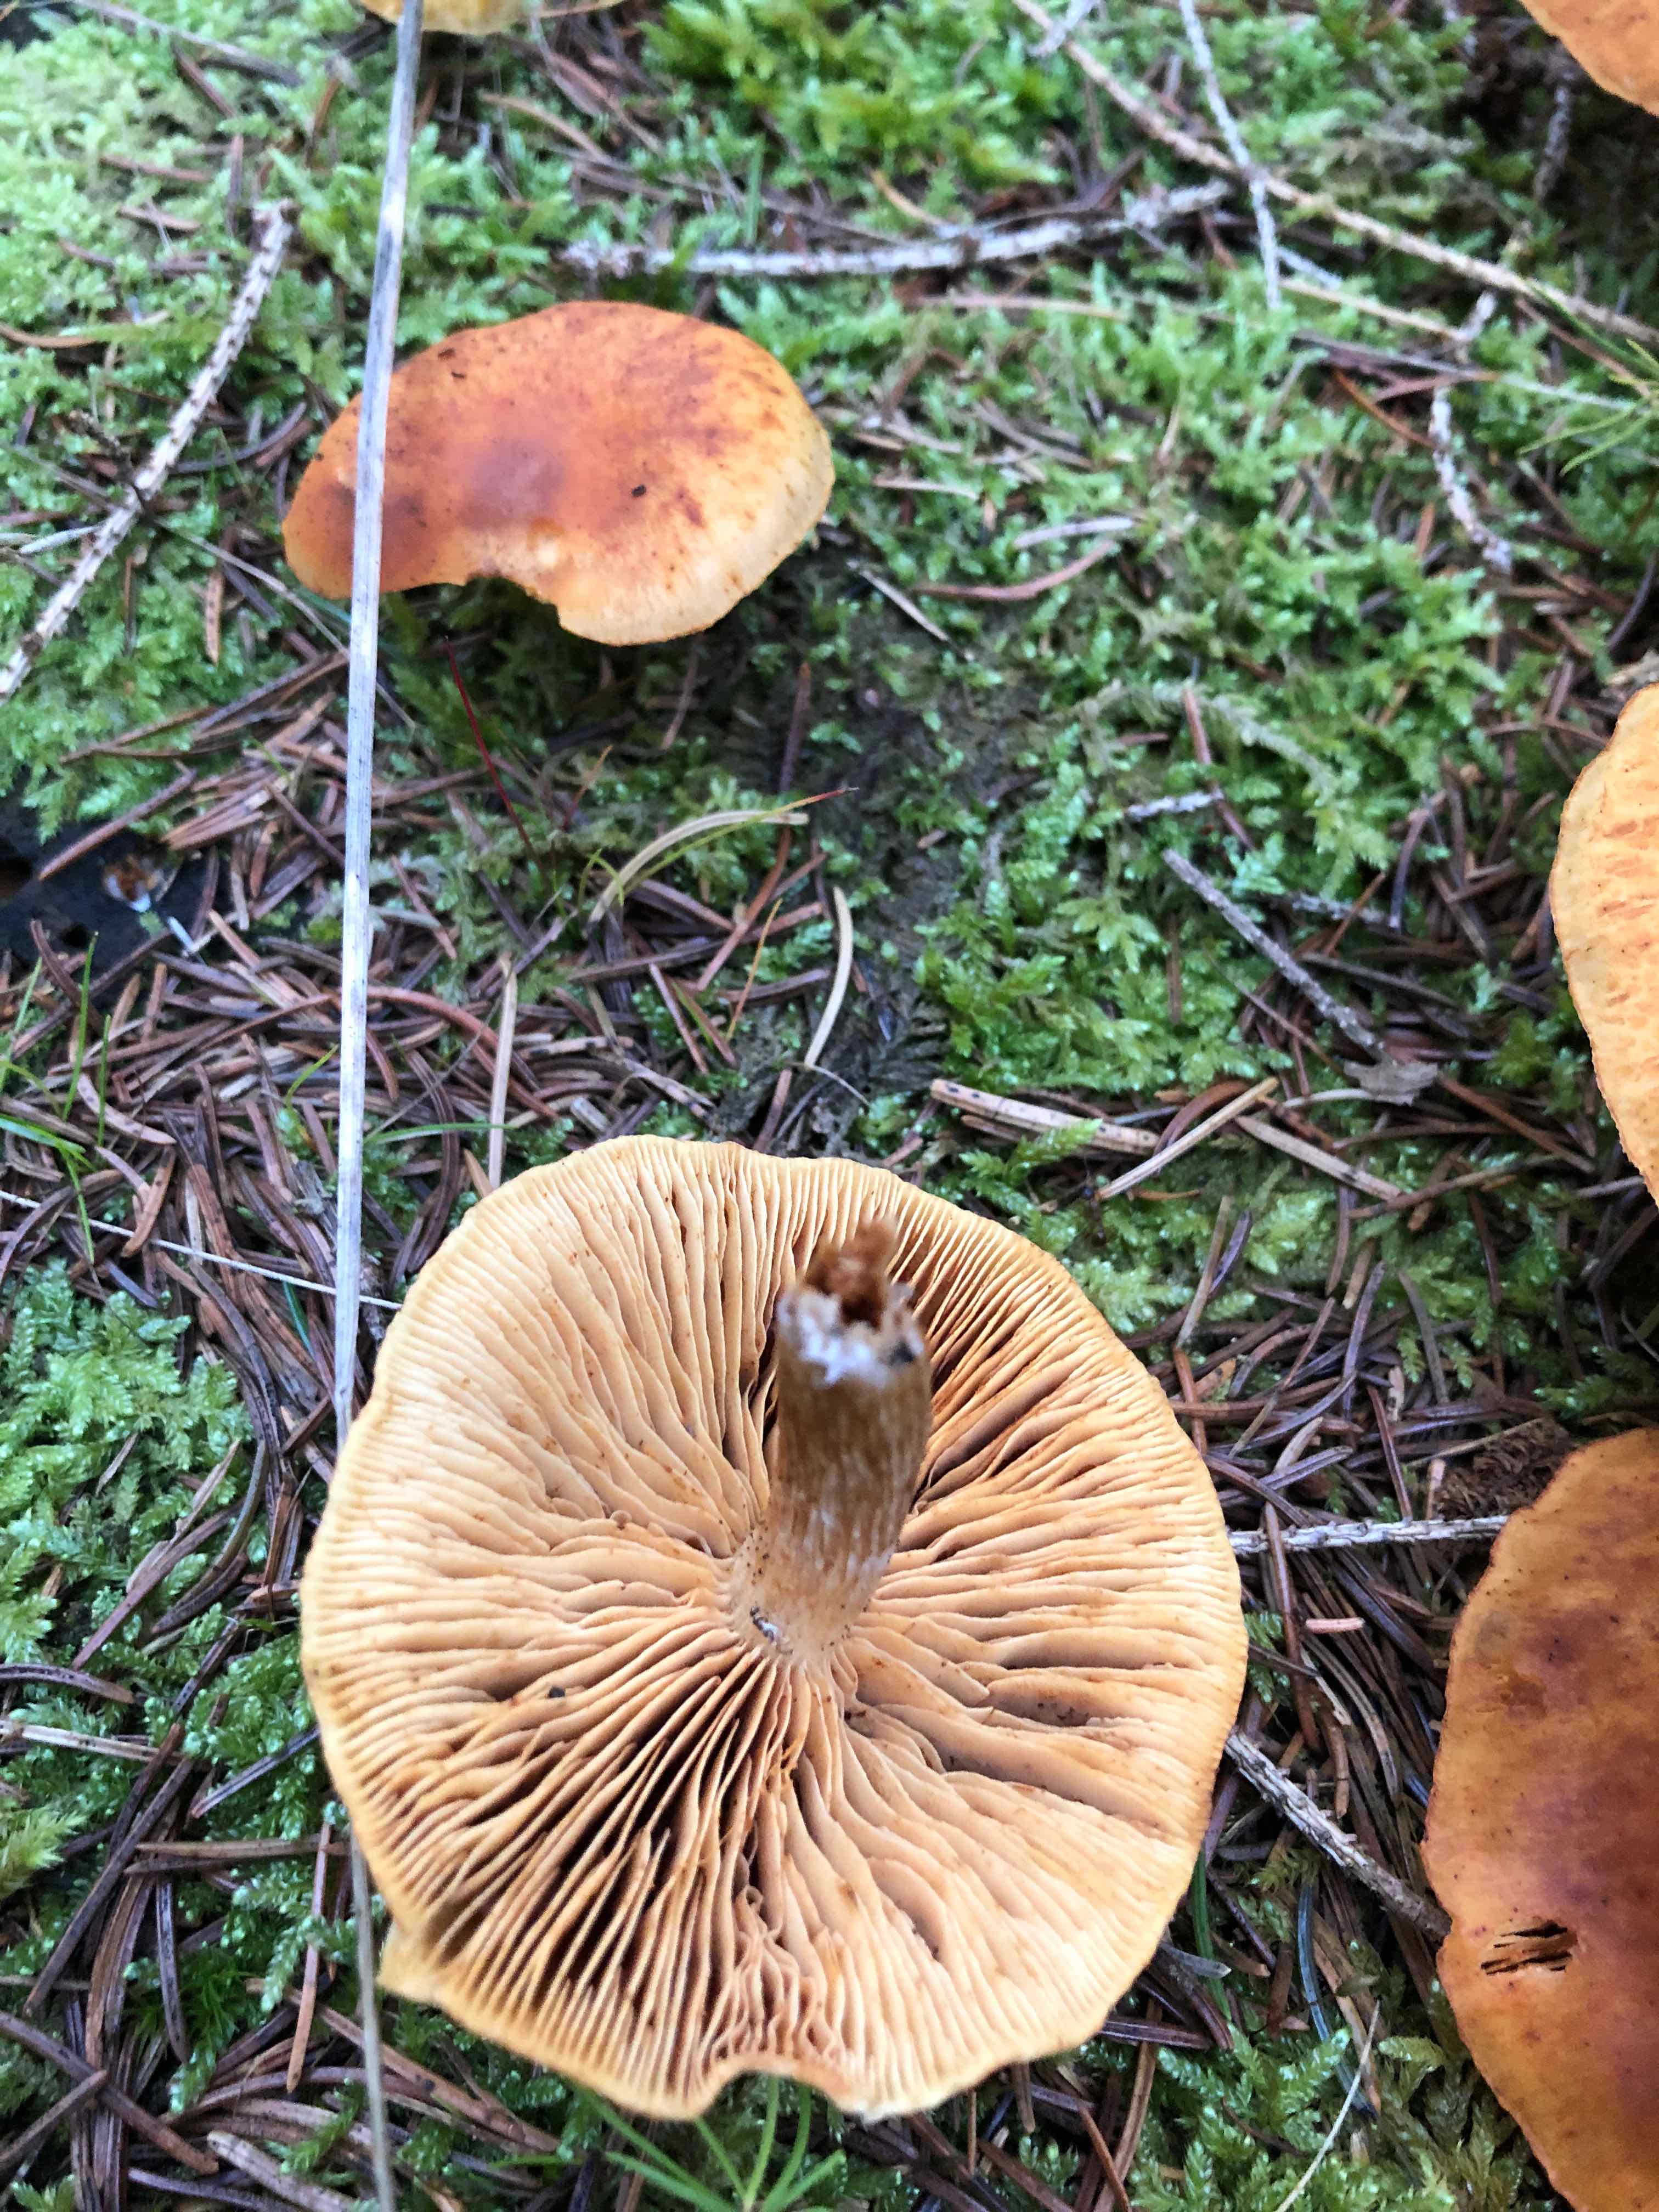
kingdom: Fungi
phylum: Basidiomycota
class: Agaricomycetes
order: Agaricales
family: Hymenogastraceae
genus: Gymnopilus
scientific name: Gymnopilus penetrans
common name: plettet flammehat
